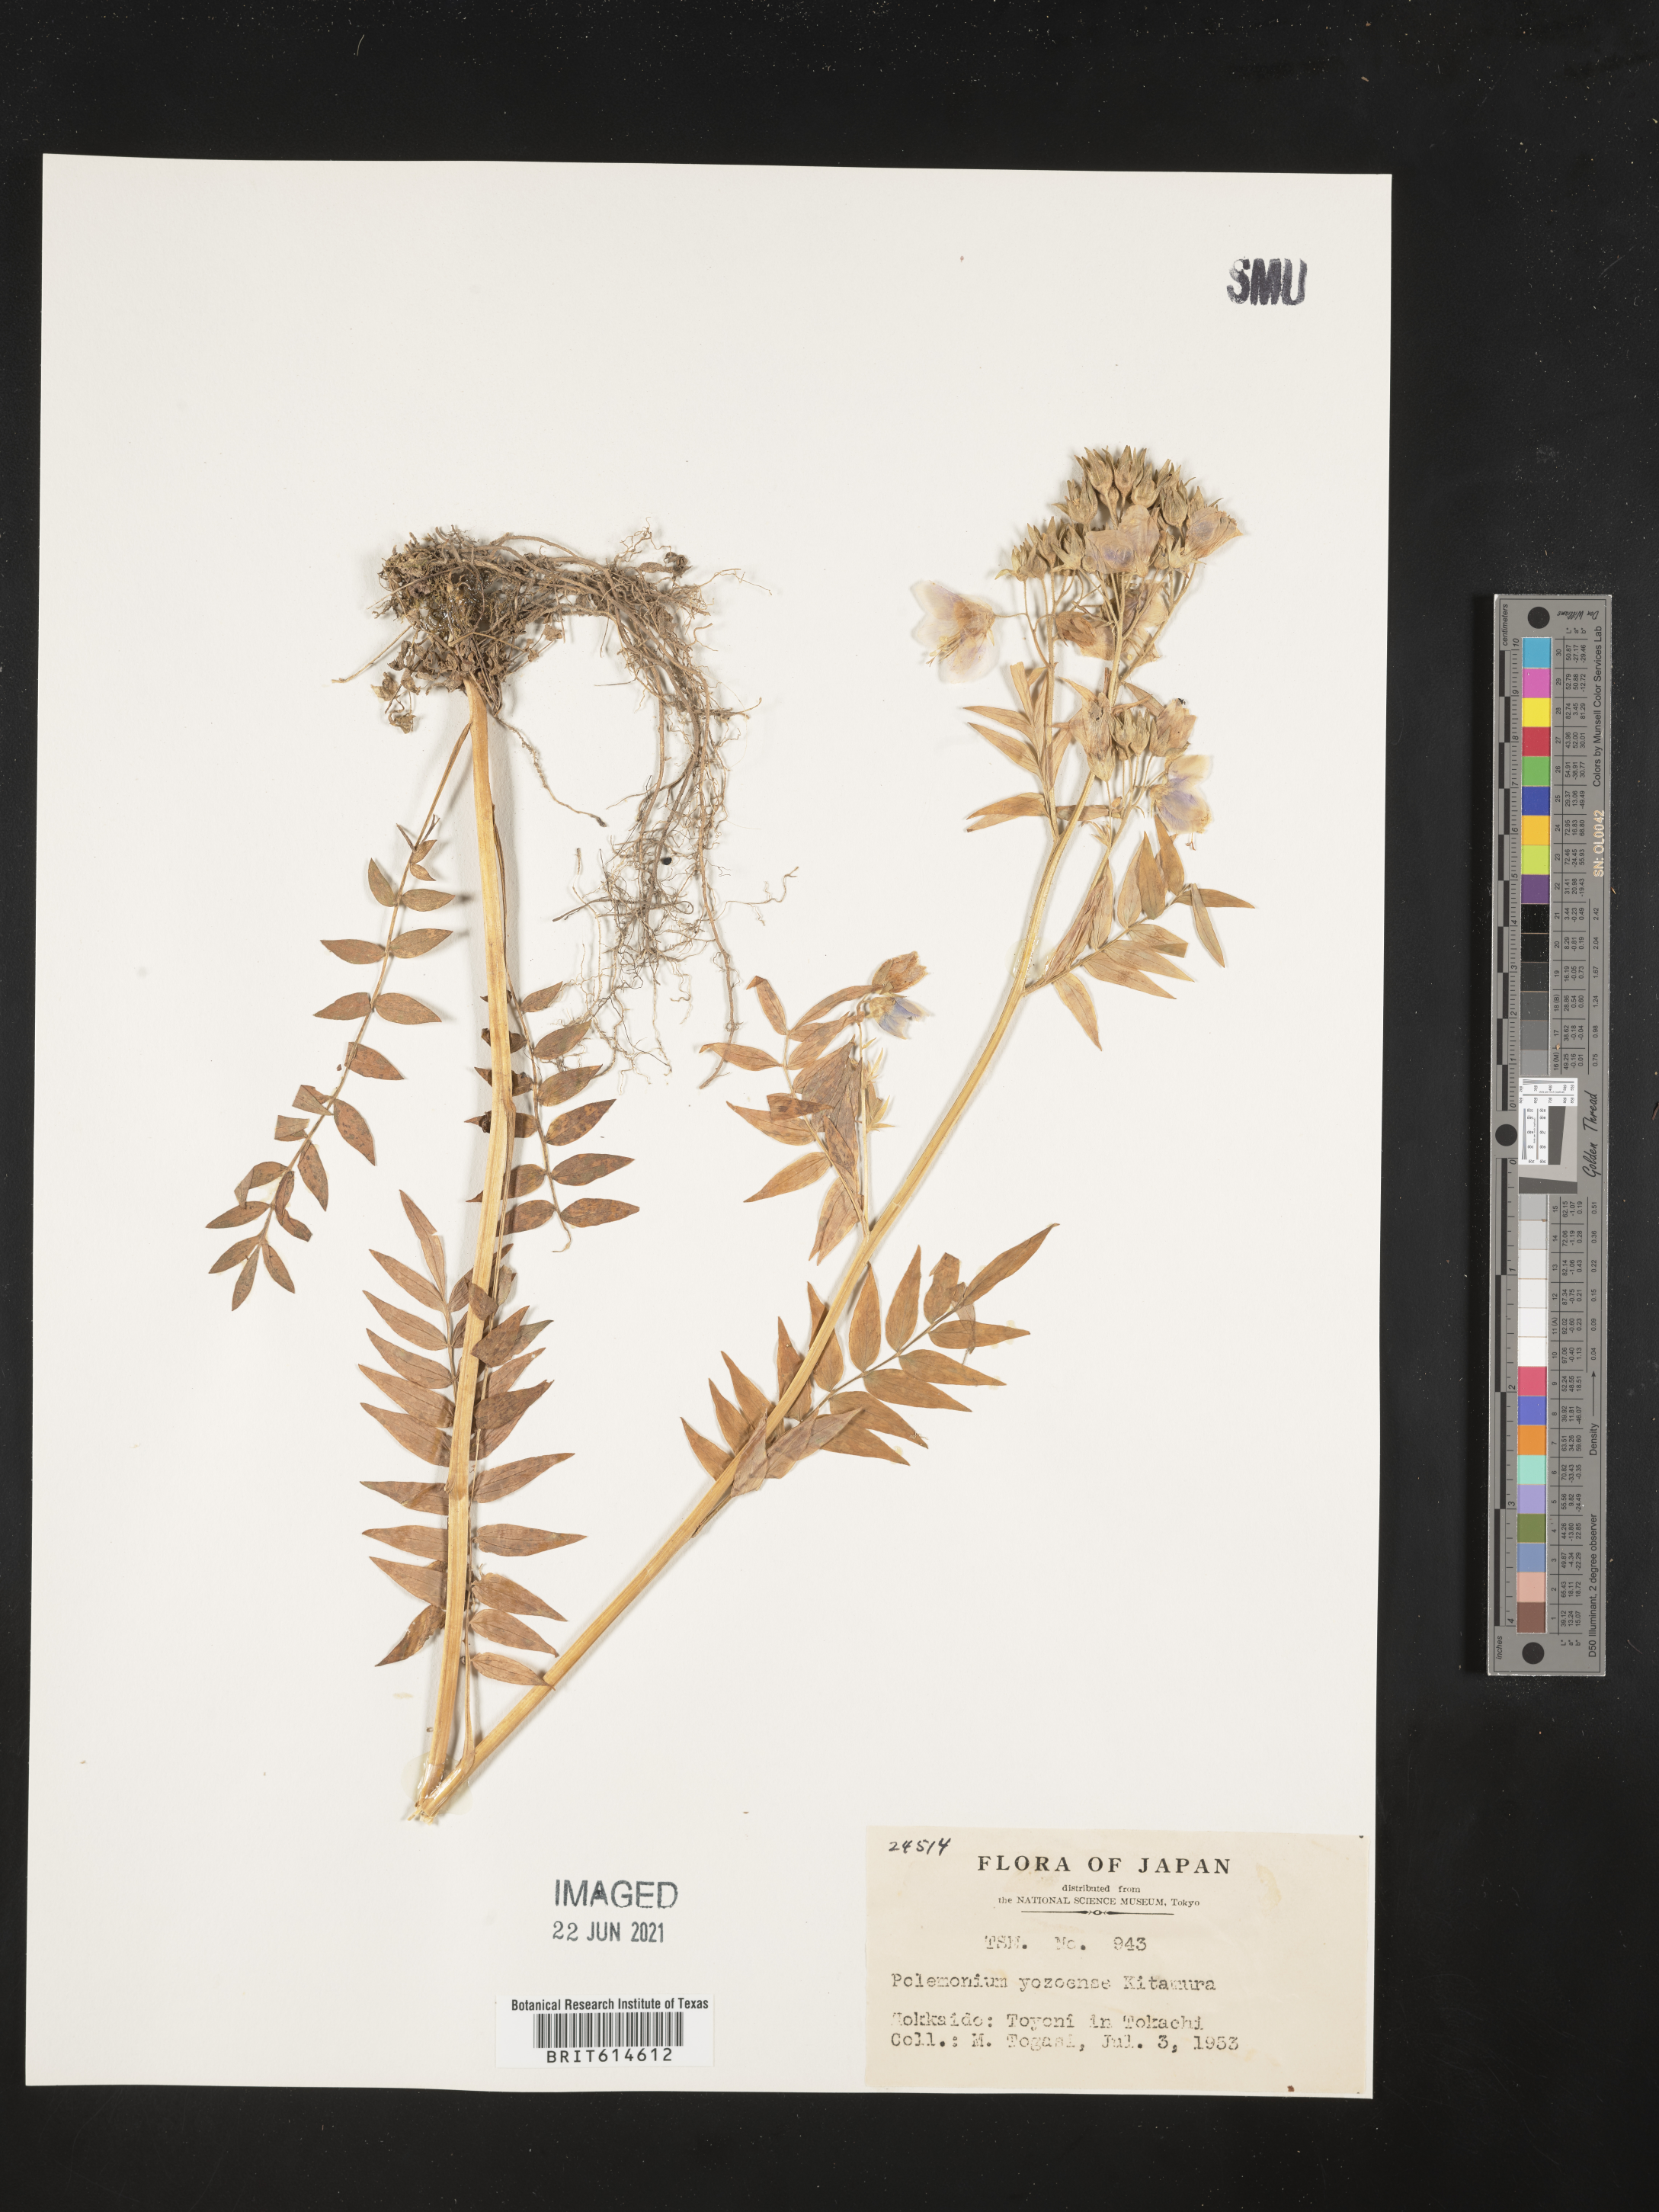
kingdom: Plantae
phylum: Tracheophyta
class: Magnoliopsida
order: Ericales
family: Polemoniaceae
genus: Polemonium
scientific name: Polemonium caeruleum
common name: Jacob's-ladder
